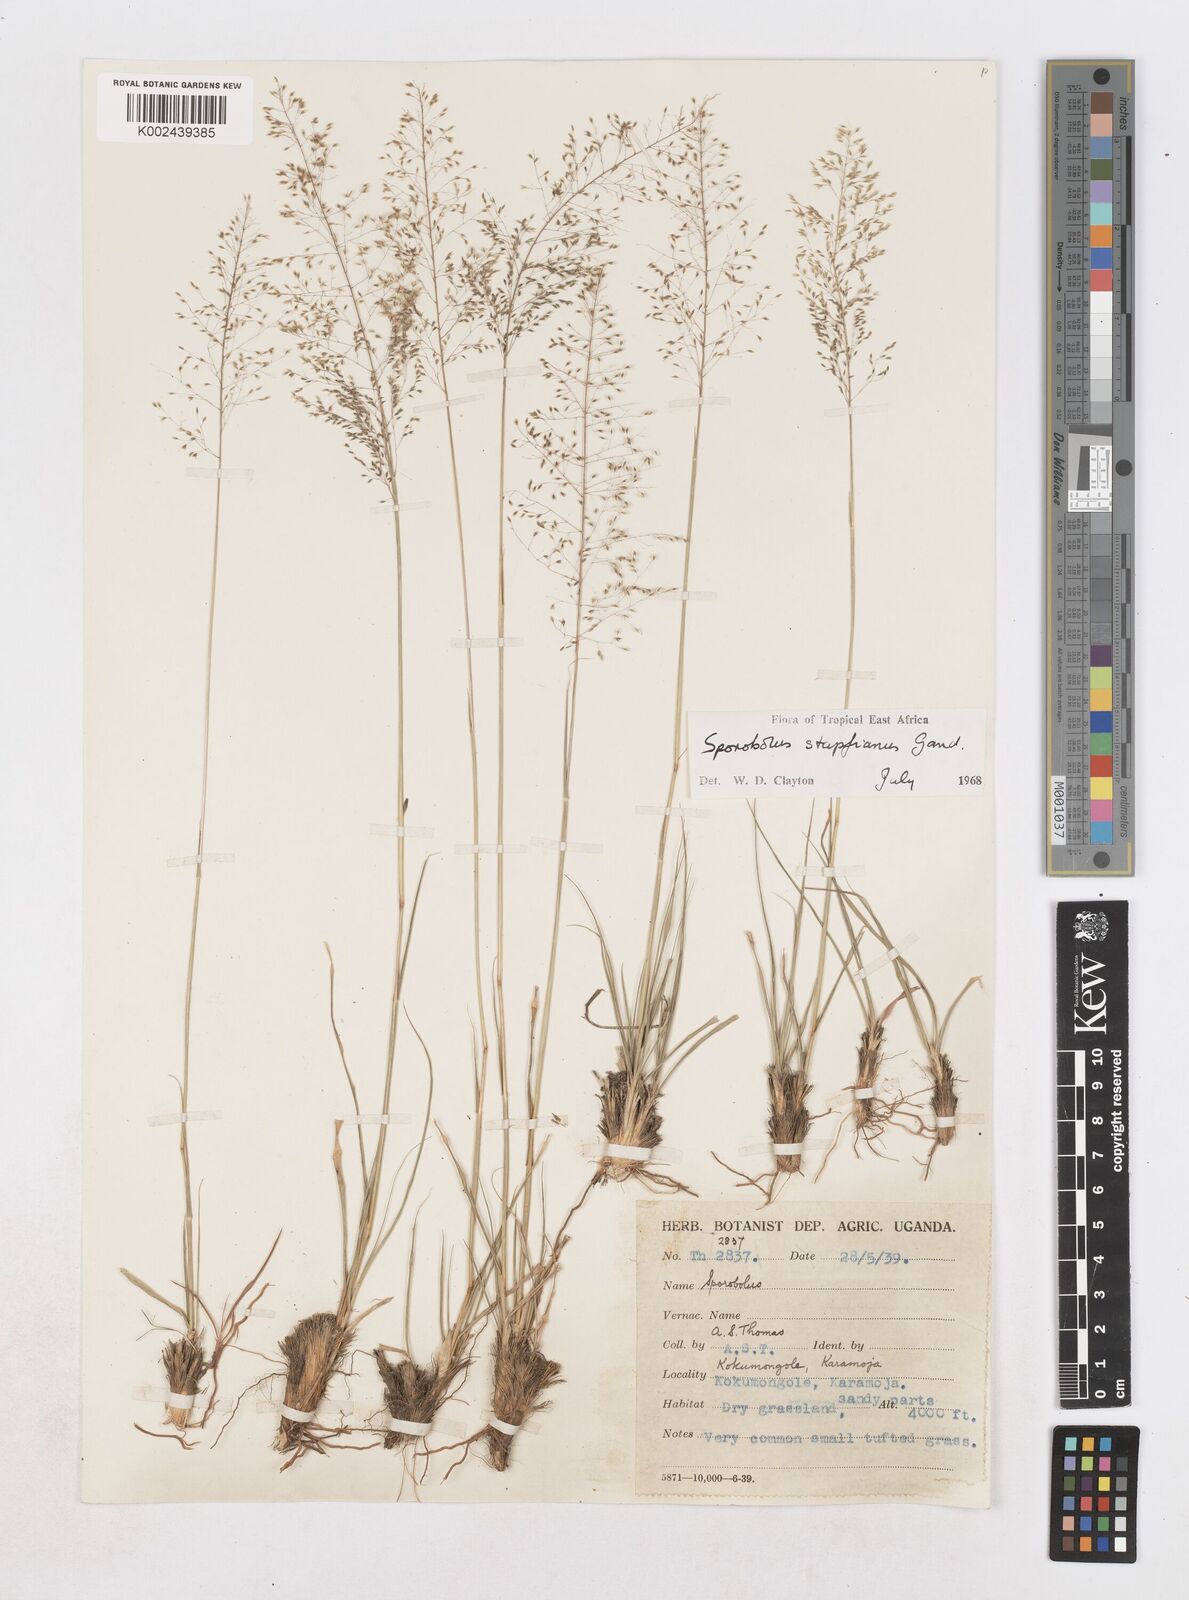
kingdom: Plantae
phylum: Tracheophyta
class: Liliopsida
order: Poales
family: Poaceae
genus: Sporobolus
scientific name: Sporobolus stapfianus
